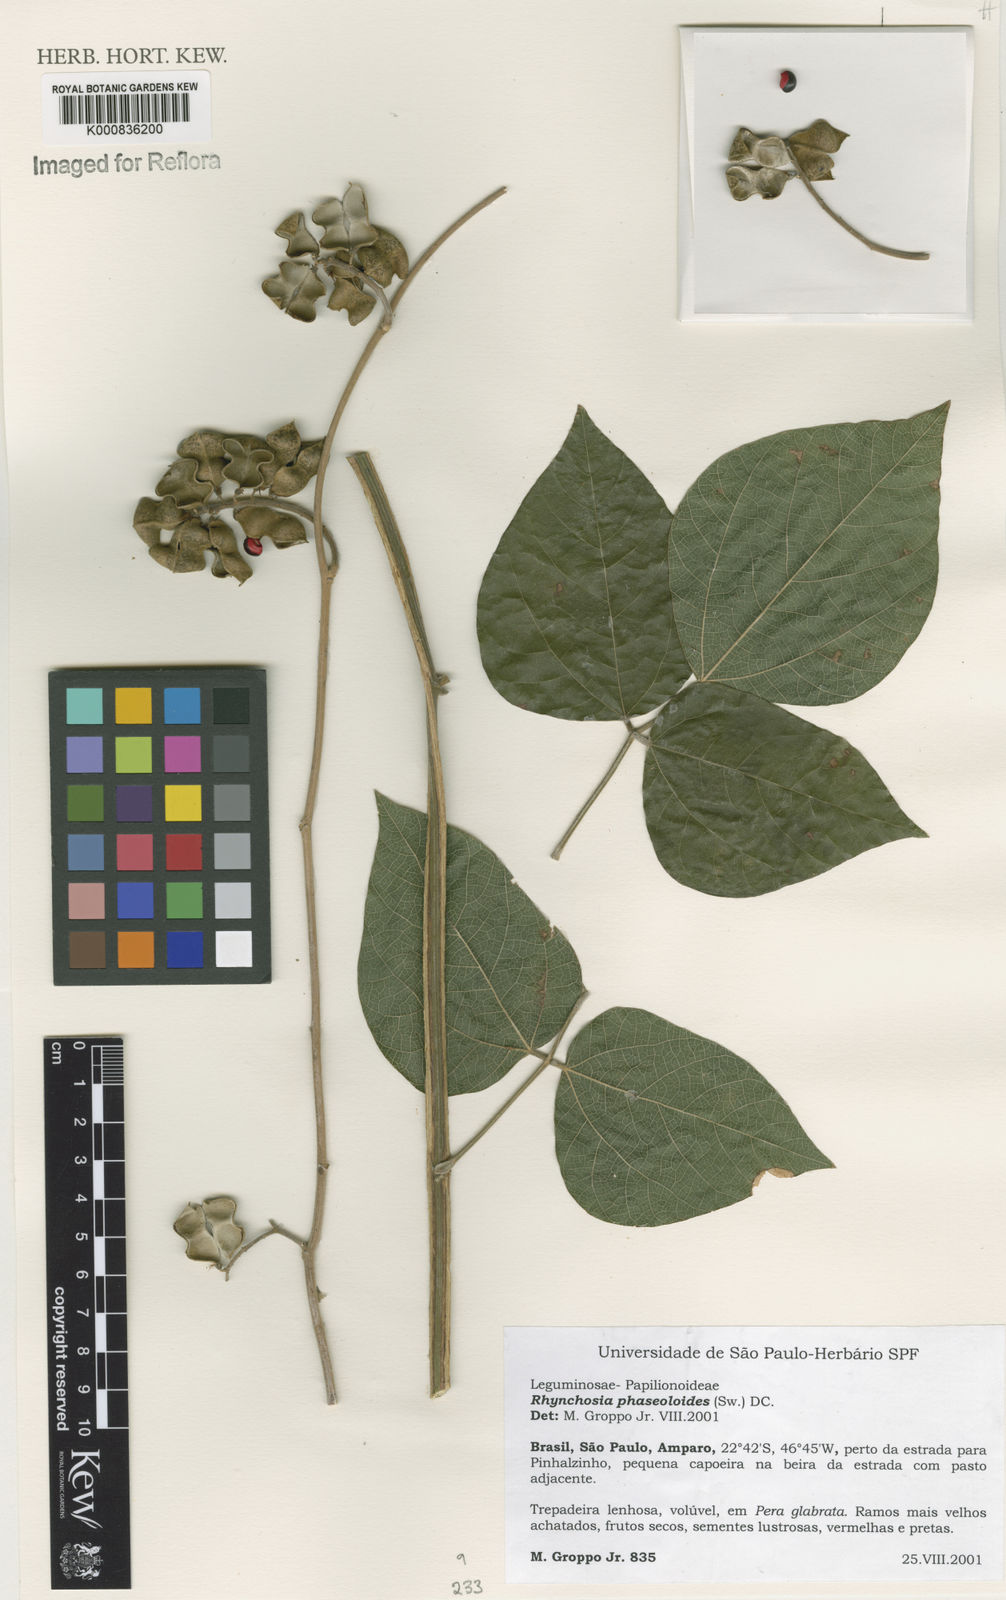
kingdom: Plantae
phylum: Tracheophyta
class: Magnoliopsida
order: Fabales
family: Fabaceae
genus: Rhynchosia
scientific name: Rhynchosia phaseoloides
